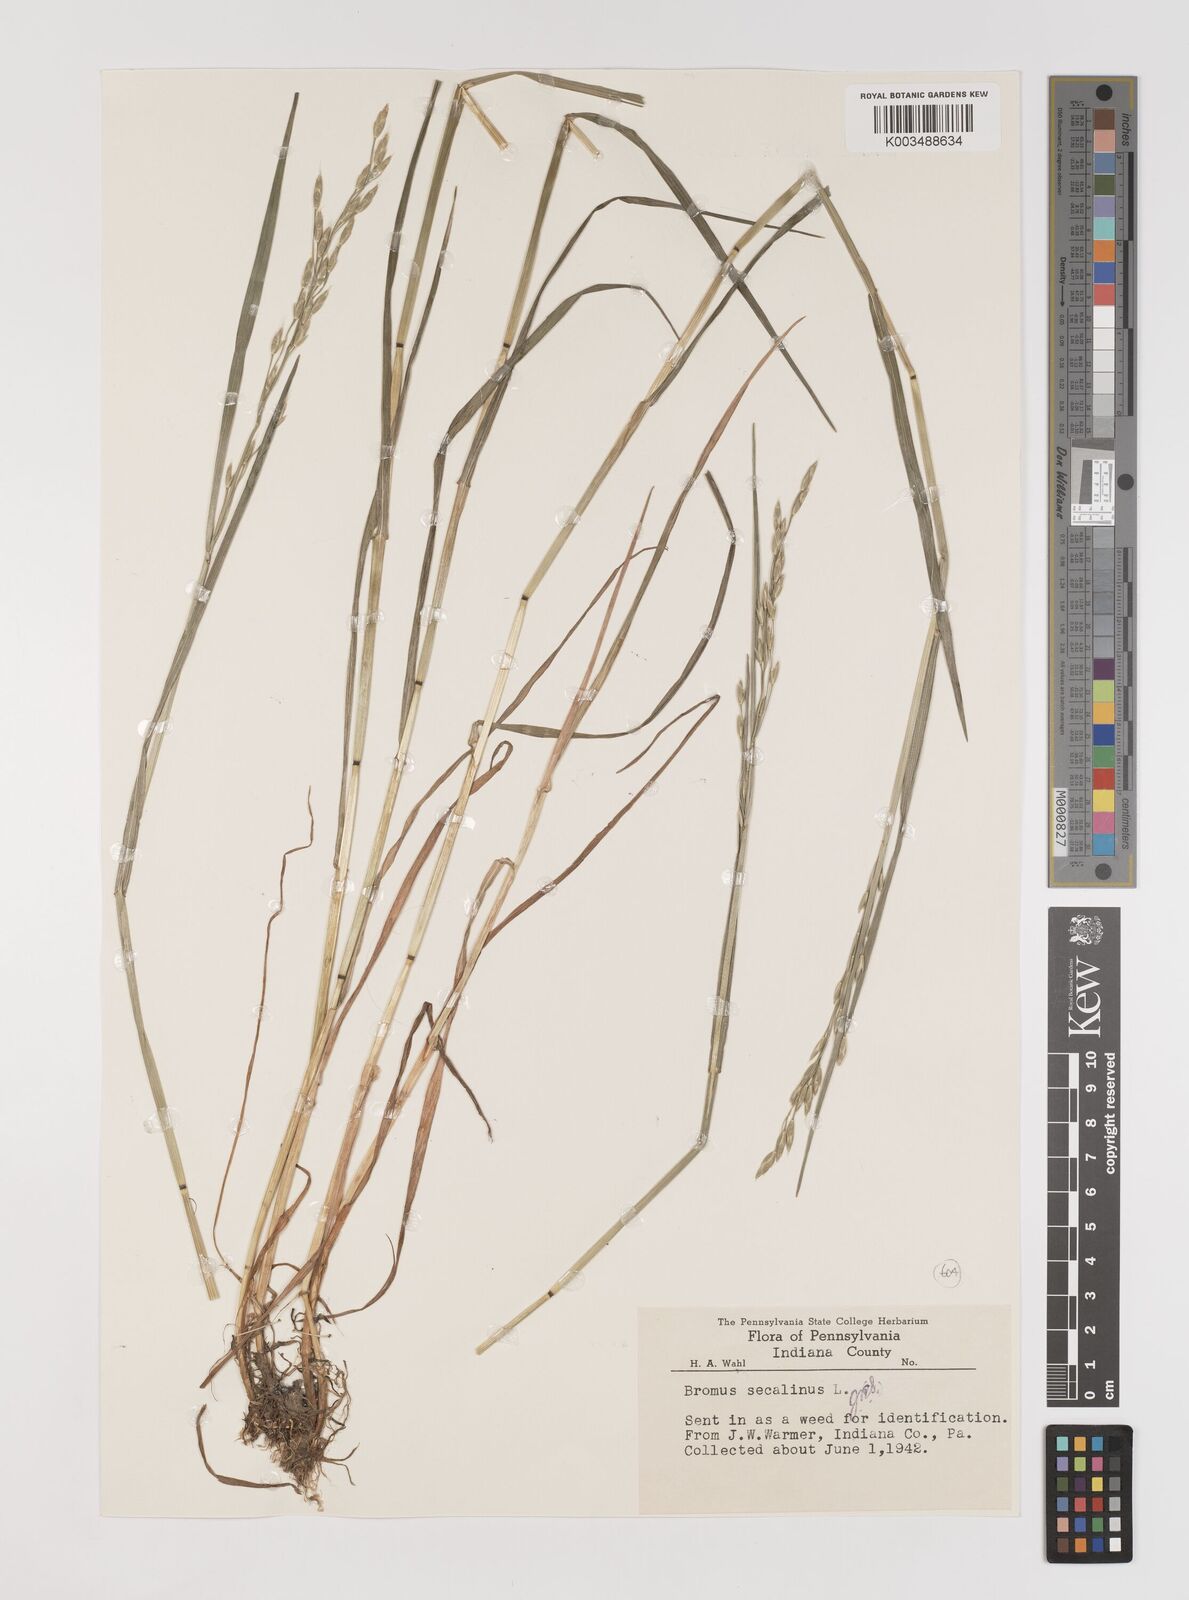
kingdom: Plantae
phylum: Tracheophyta
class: Liliopsida
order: Poales
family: Poaceae
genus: Bromus
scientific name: Bromus secalinus
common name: Rye brome
